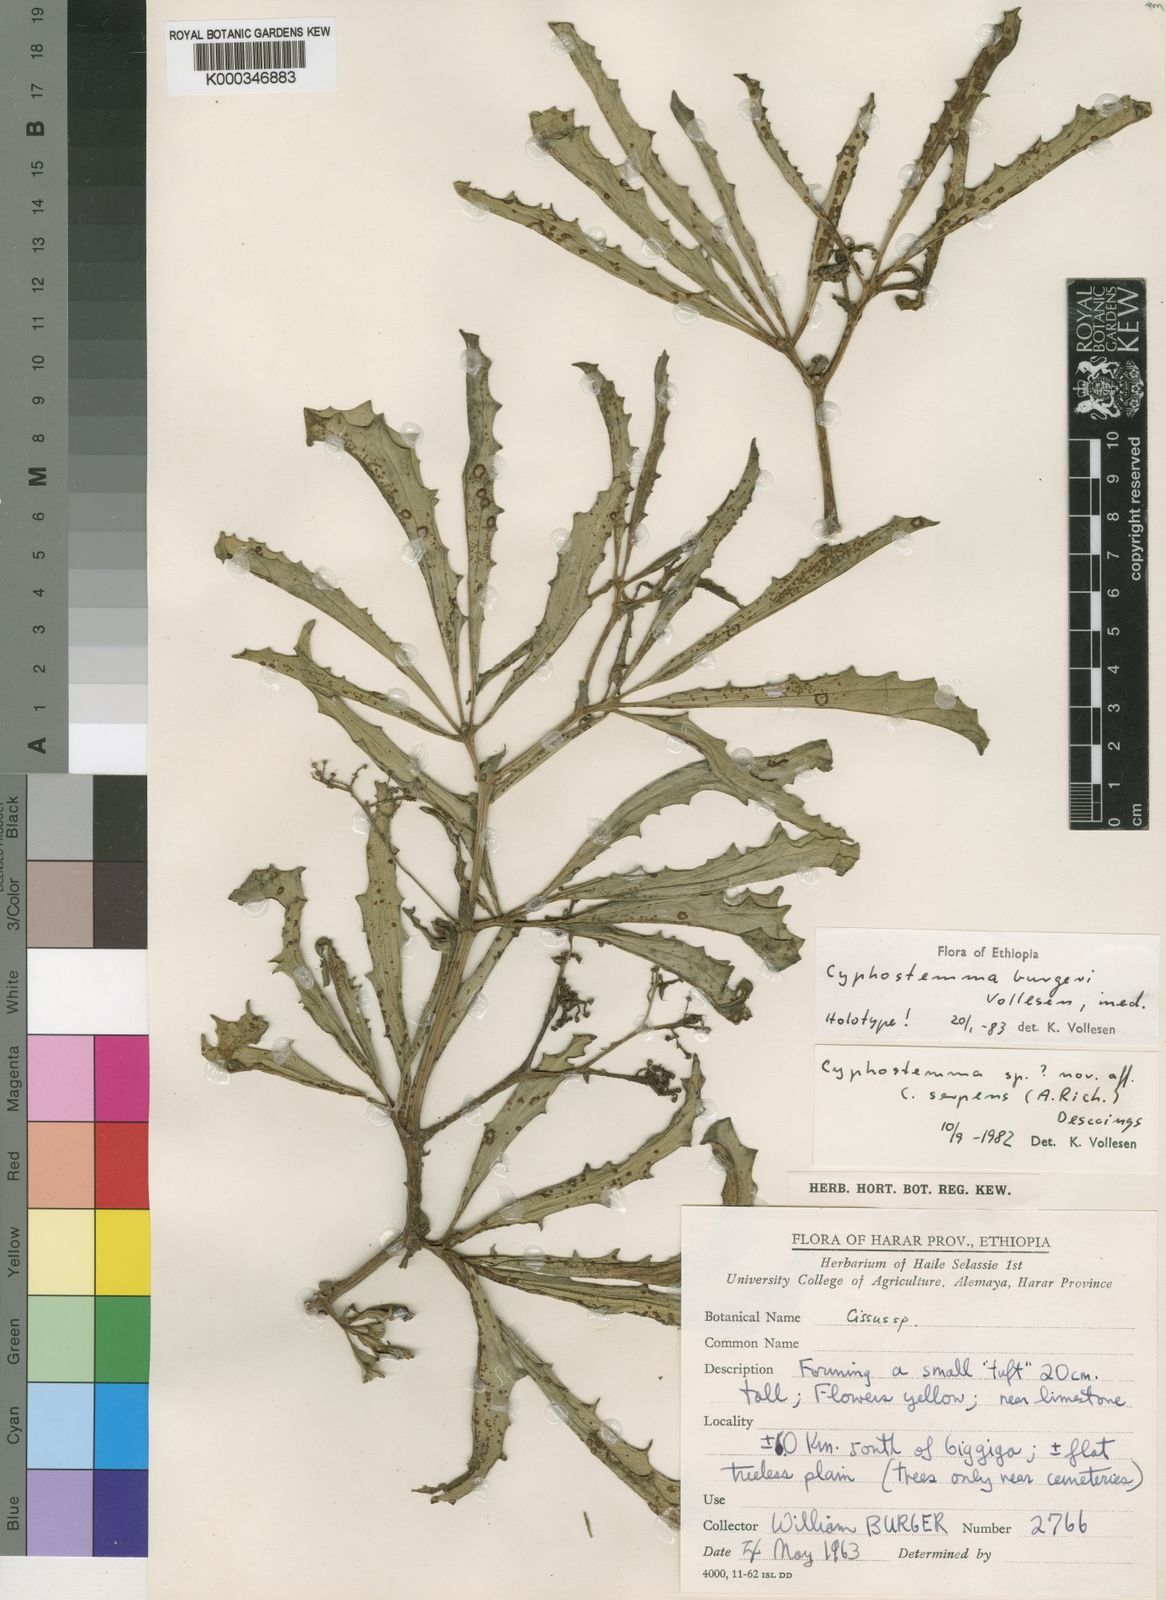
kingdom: Plantae
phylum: Tracheophyta
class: Magnoliopsida
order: Vitales
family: Vitaceae
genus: Cyphostemma
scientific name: Cyphostemma burgeri
